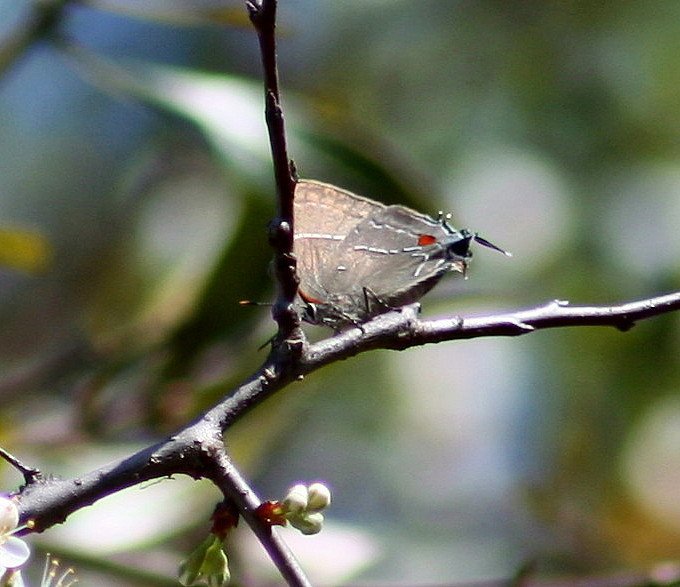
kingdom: Animalia
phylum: Arthropoda
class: Insecta
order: Lepidoptera
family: Lycaenidae
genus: Parrhasius
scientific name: Parrhasius m-album
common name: White-m Hairstreak
